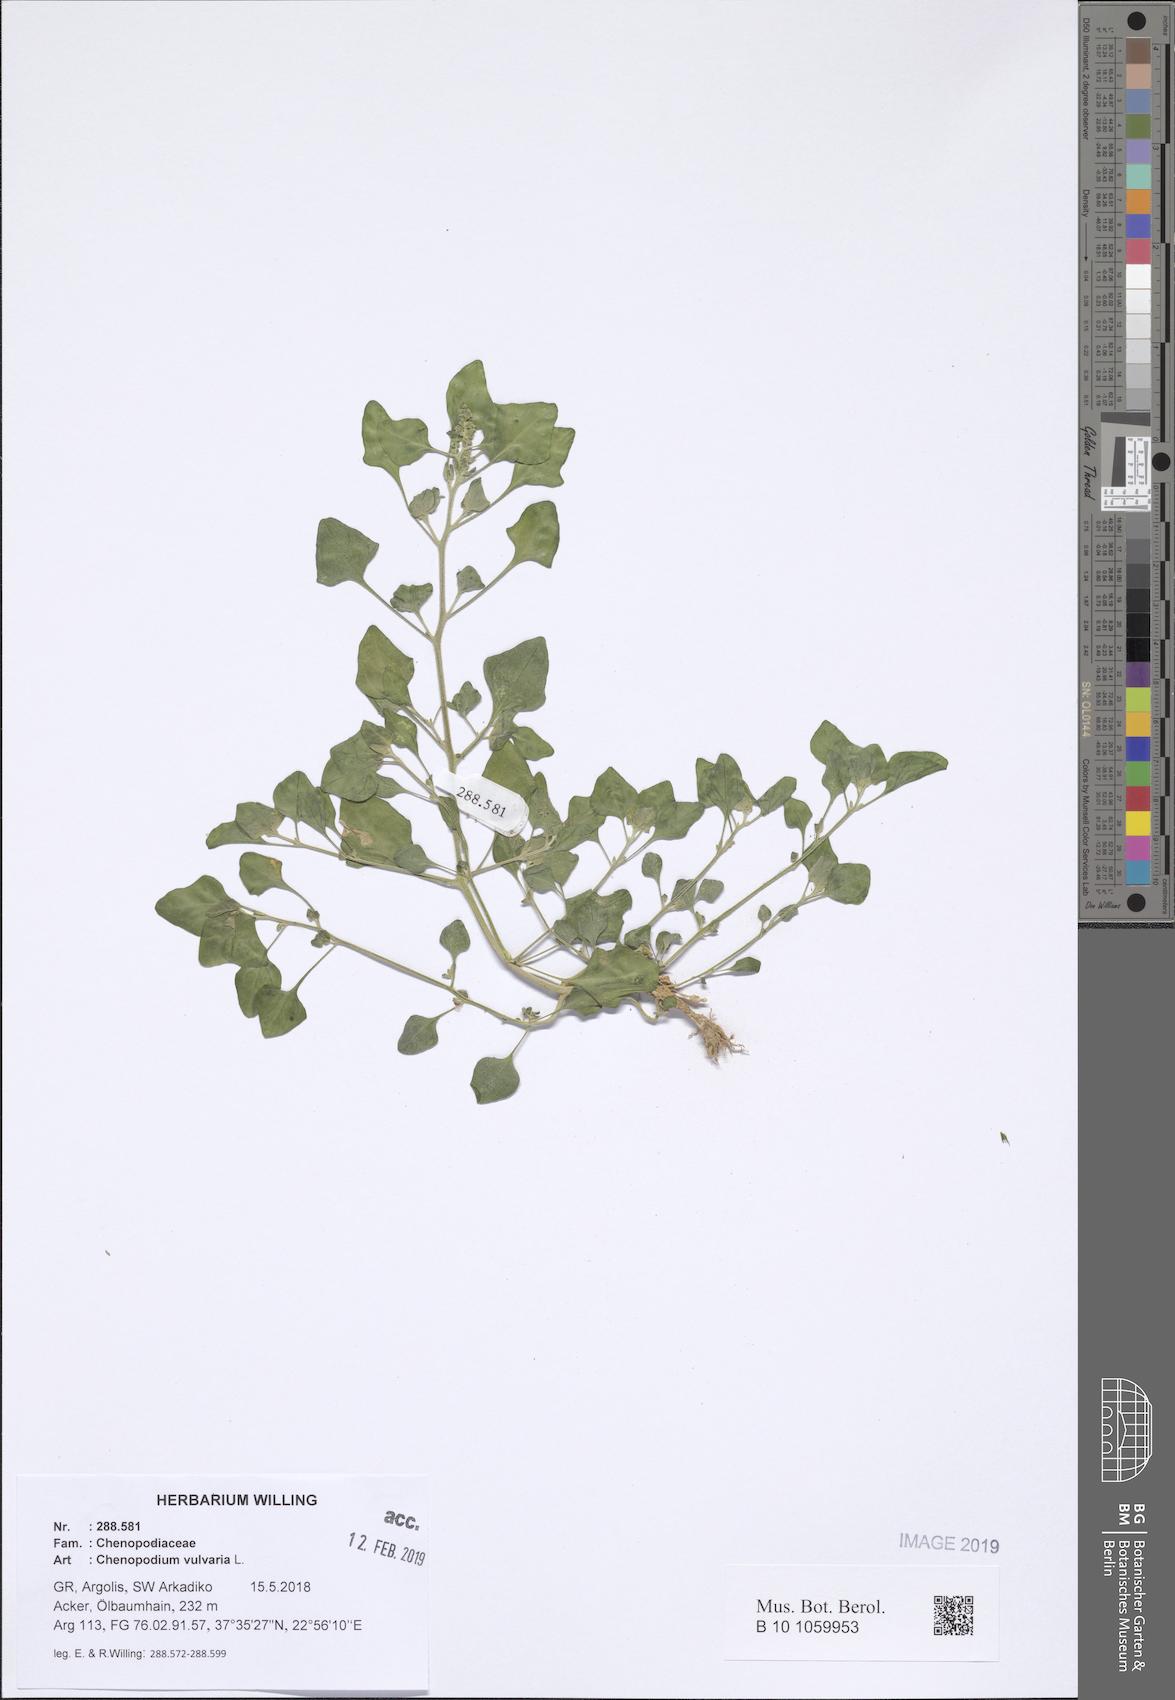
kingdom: Plantae
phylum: Tracheophyta
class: Magnoliopsida
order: Caryophyllales
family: Amaranthaceae
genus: Chenopodium
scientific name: Chenopodium vulvaria
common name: Stinking goosefoot
